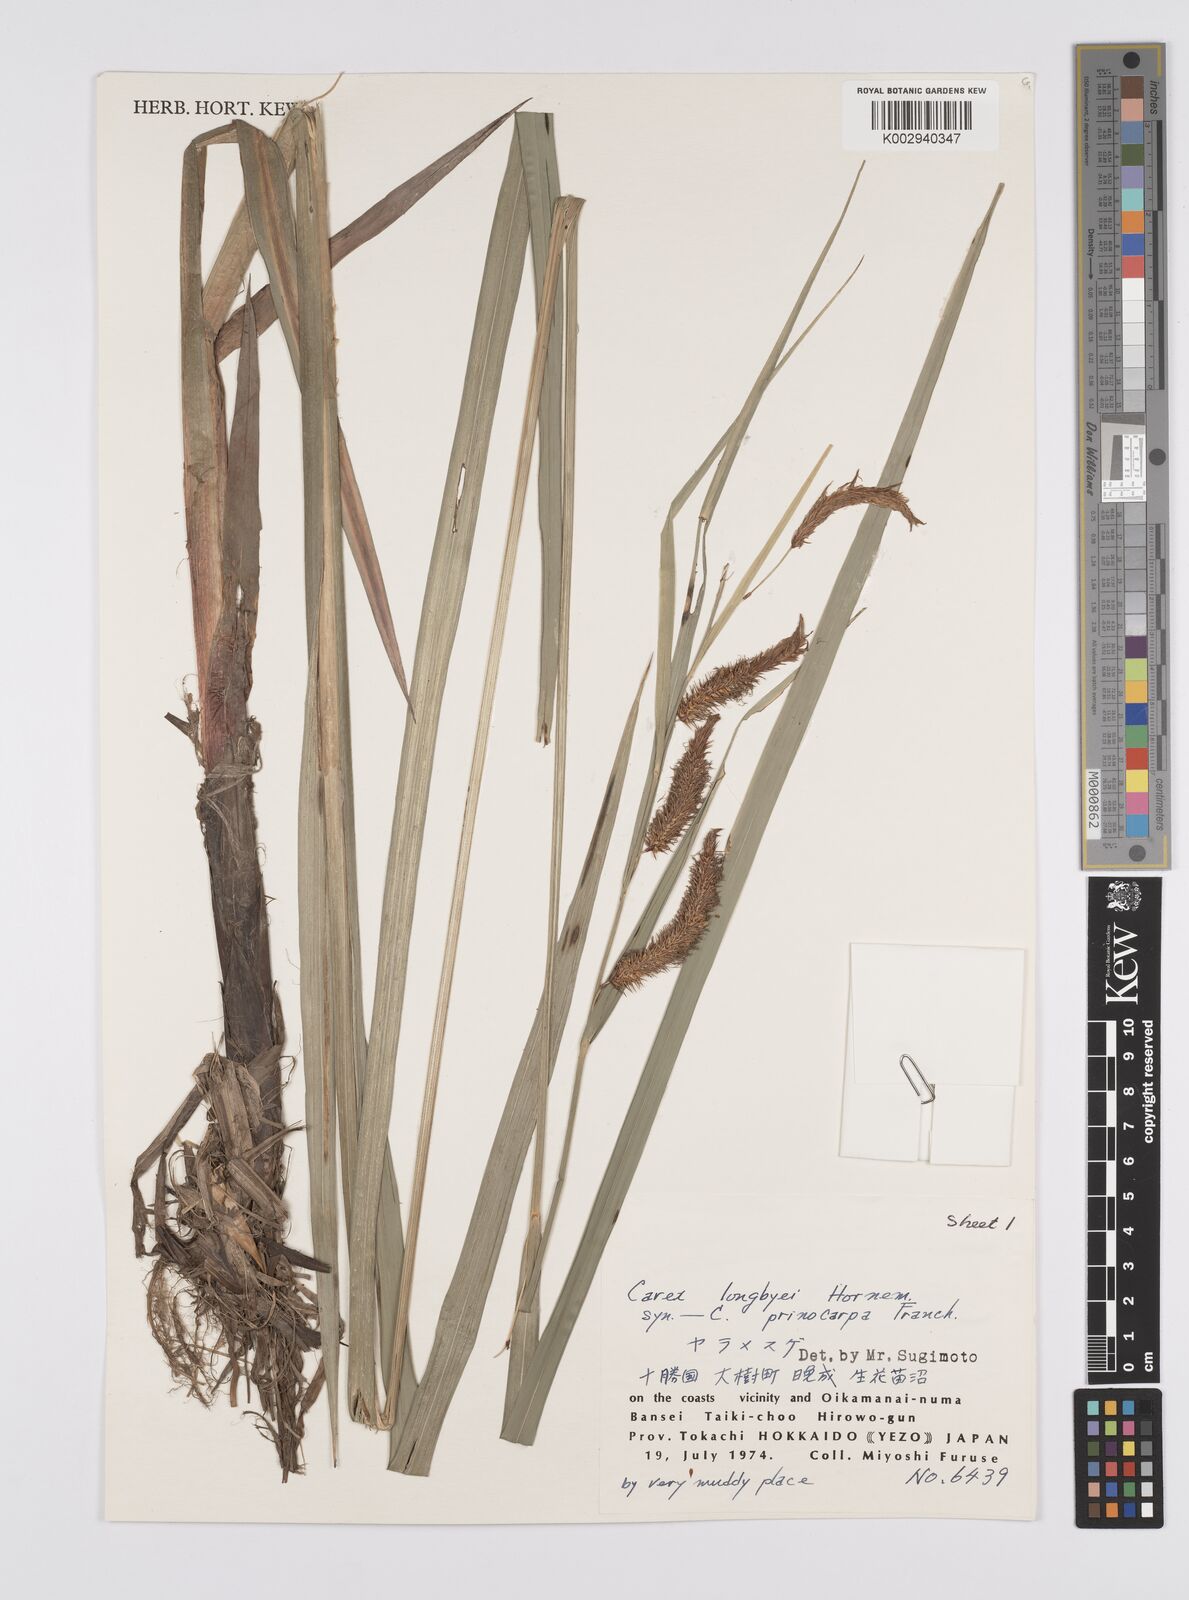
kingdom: Plantae
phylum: Tracheophyta
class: Liliopsida
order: Poales
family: Cyperaceae
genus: Carex
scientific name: Carex lyngbyei
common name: Lyngbye's sedge
